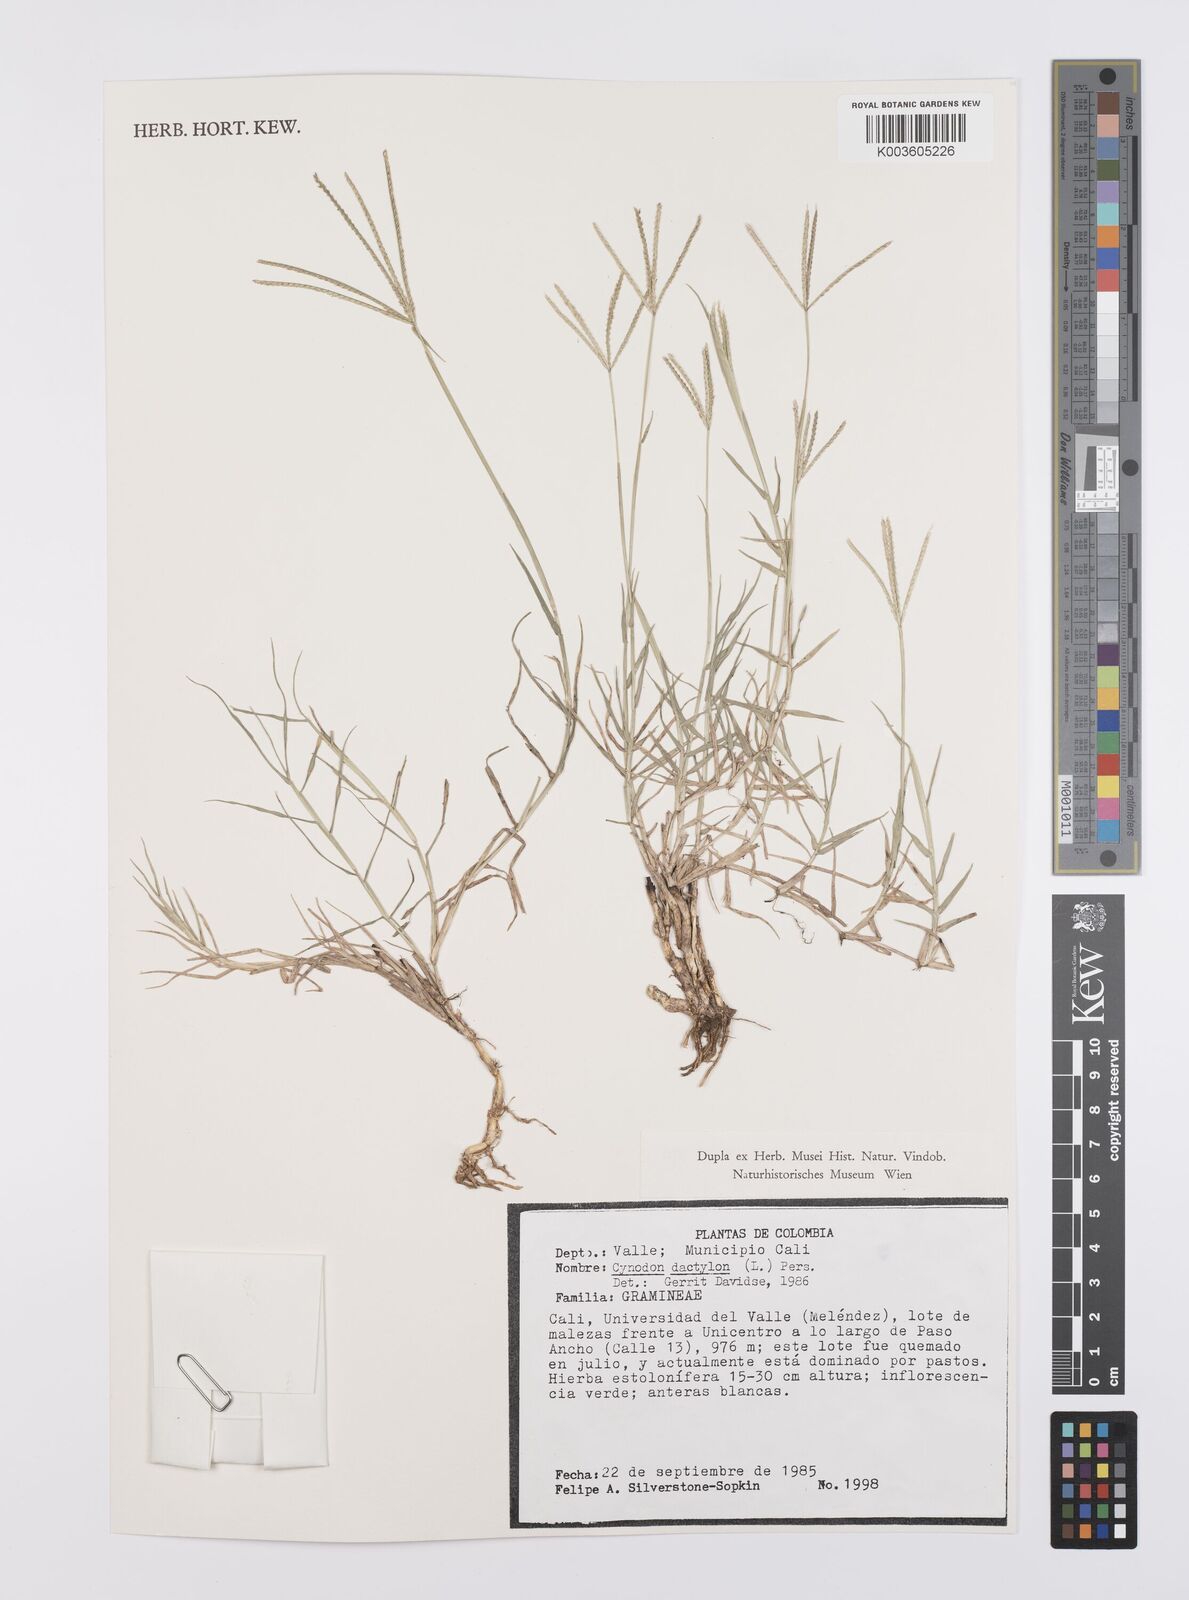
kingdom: Plantae
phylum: Tracheophyta
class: Liliopsida
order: Poales
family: Poaceae
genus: Cynodon
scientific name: Cynodon dactylon
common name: Bermuda grass
